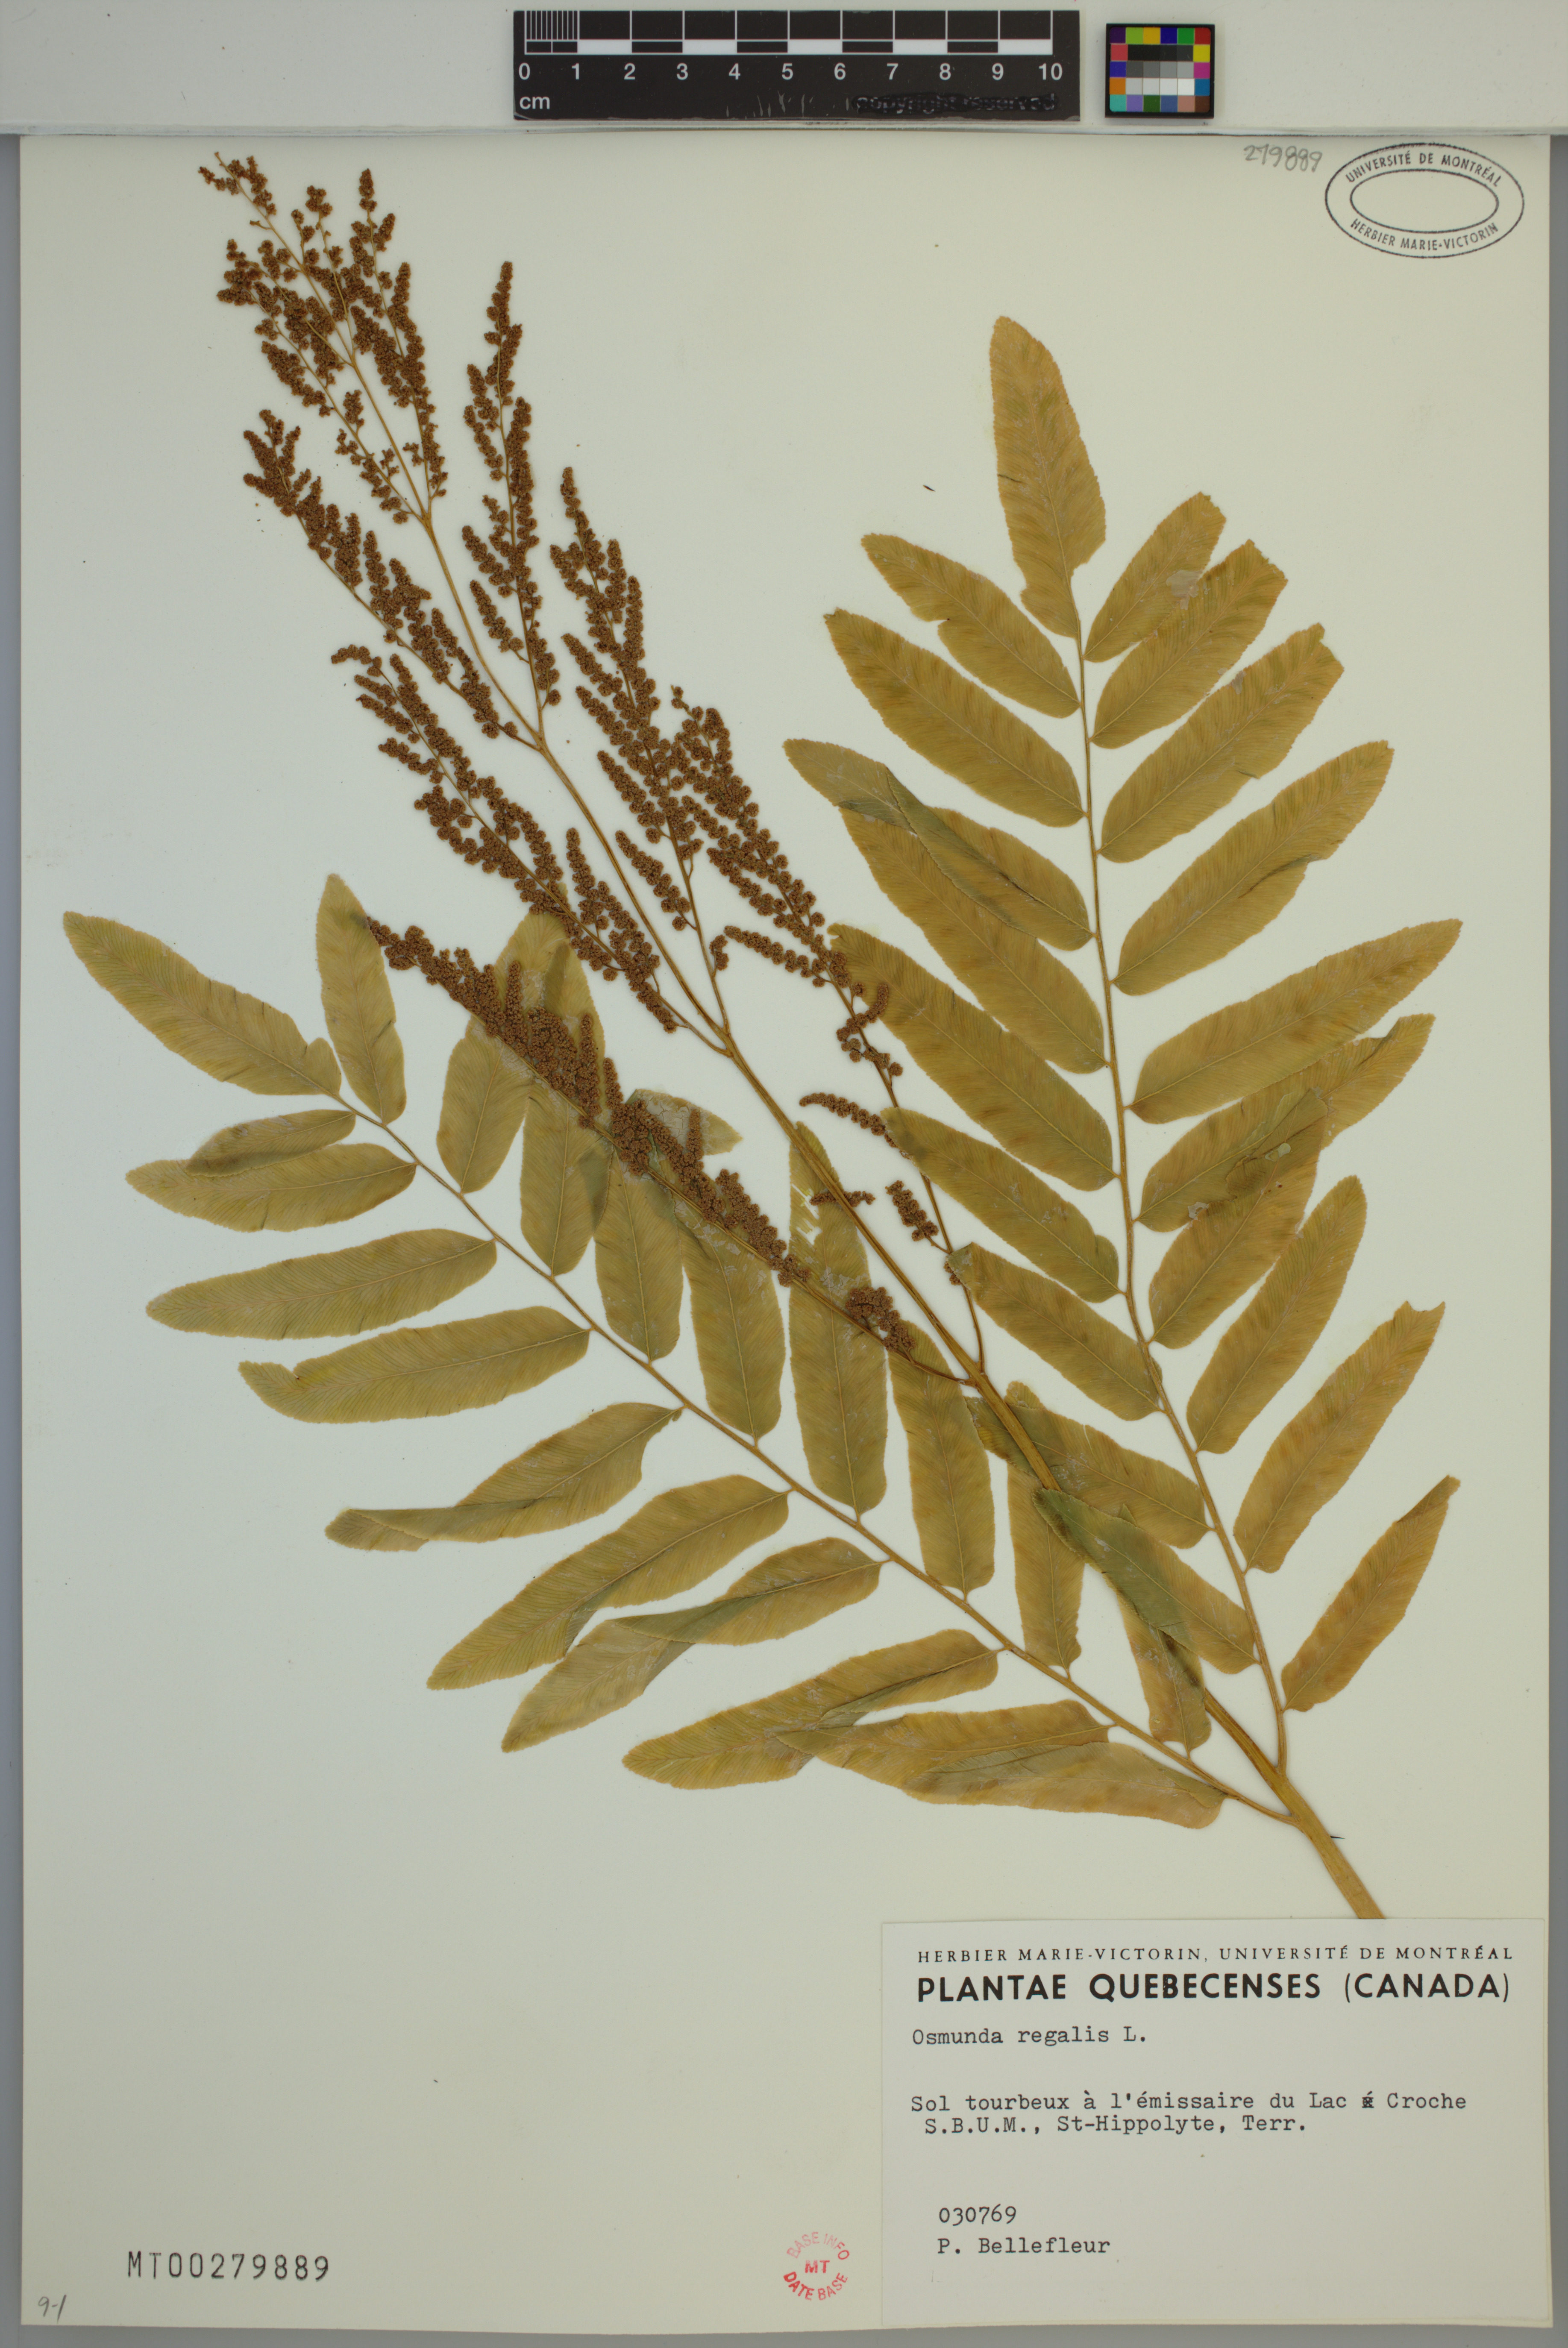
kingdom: Plantae
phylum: Tracheophyta
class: Polypodiopsida
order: Osmundales
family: Osmundaceae
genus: Osmunda
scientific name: Osmunda spectabilis
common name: American royal fern
